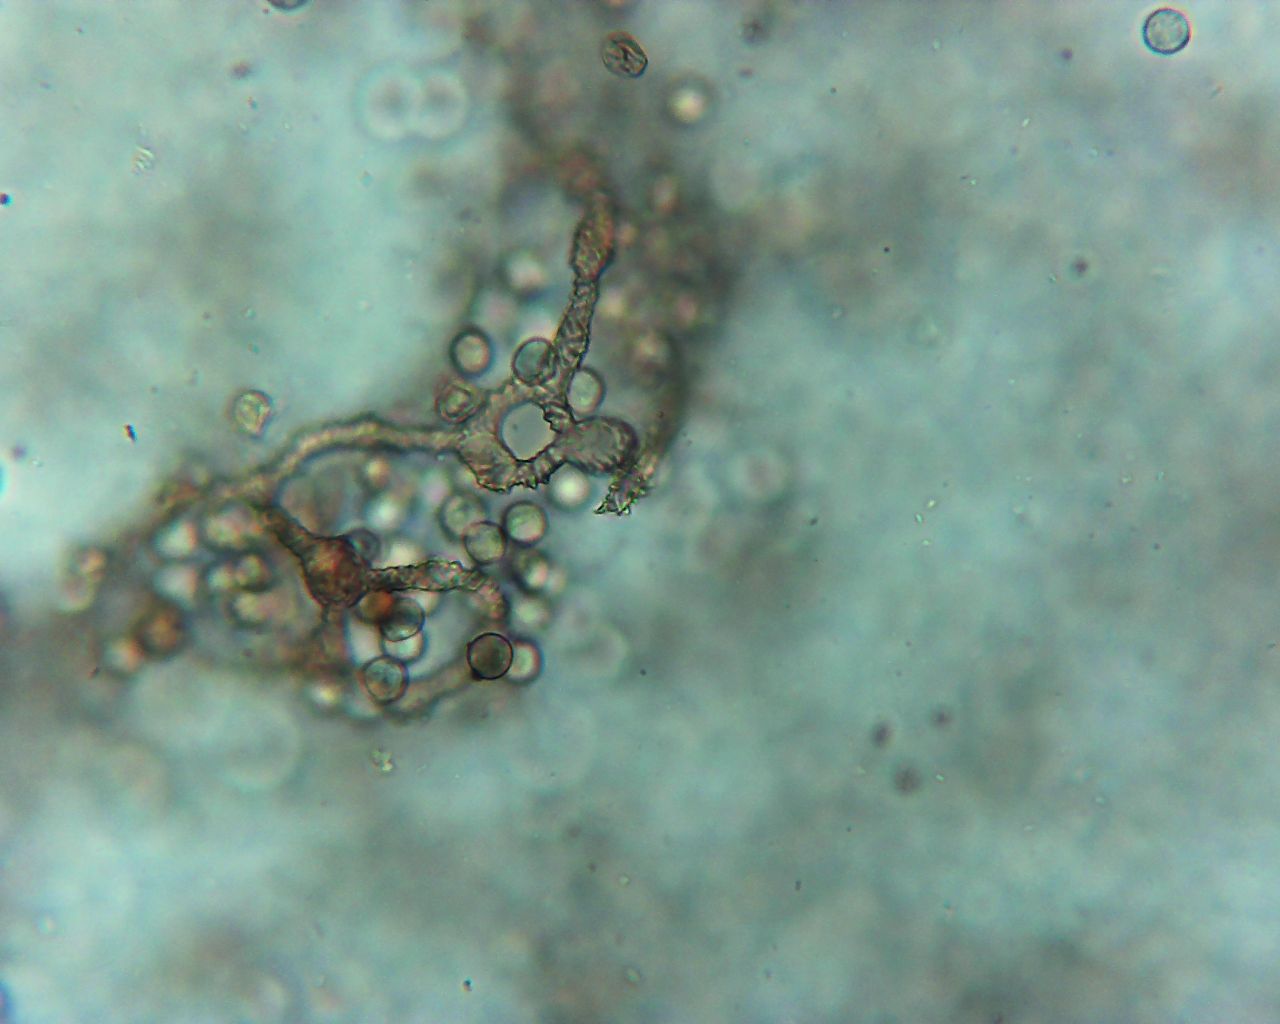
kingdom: Protozoa
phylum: Mycetozoa
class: Myxomycetes
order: Trichiales
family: Arcyriaceae
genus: Arcyria
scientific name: Arcyria stipata
